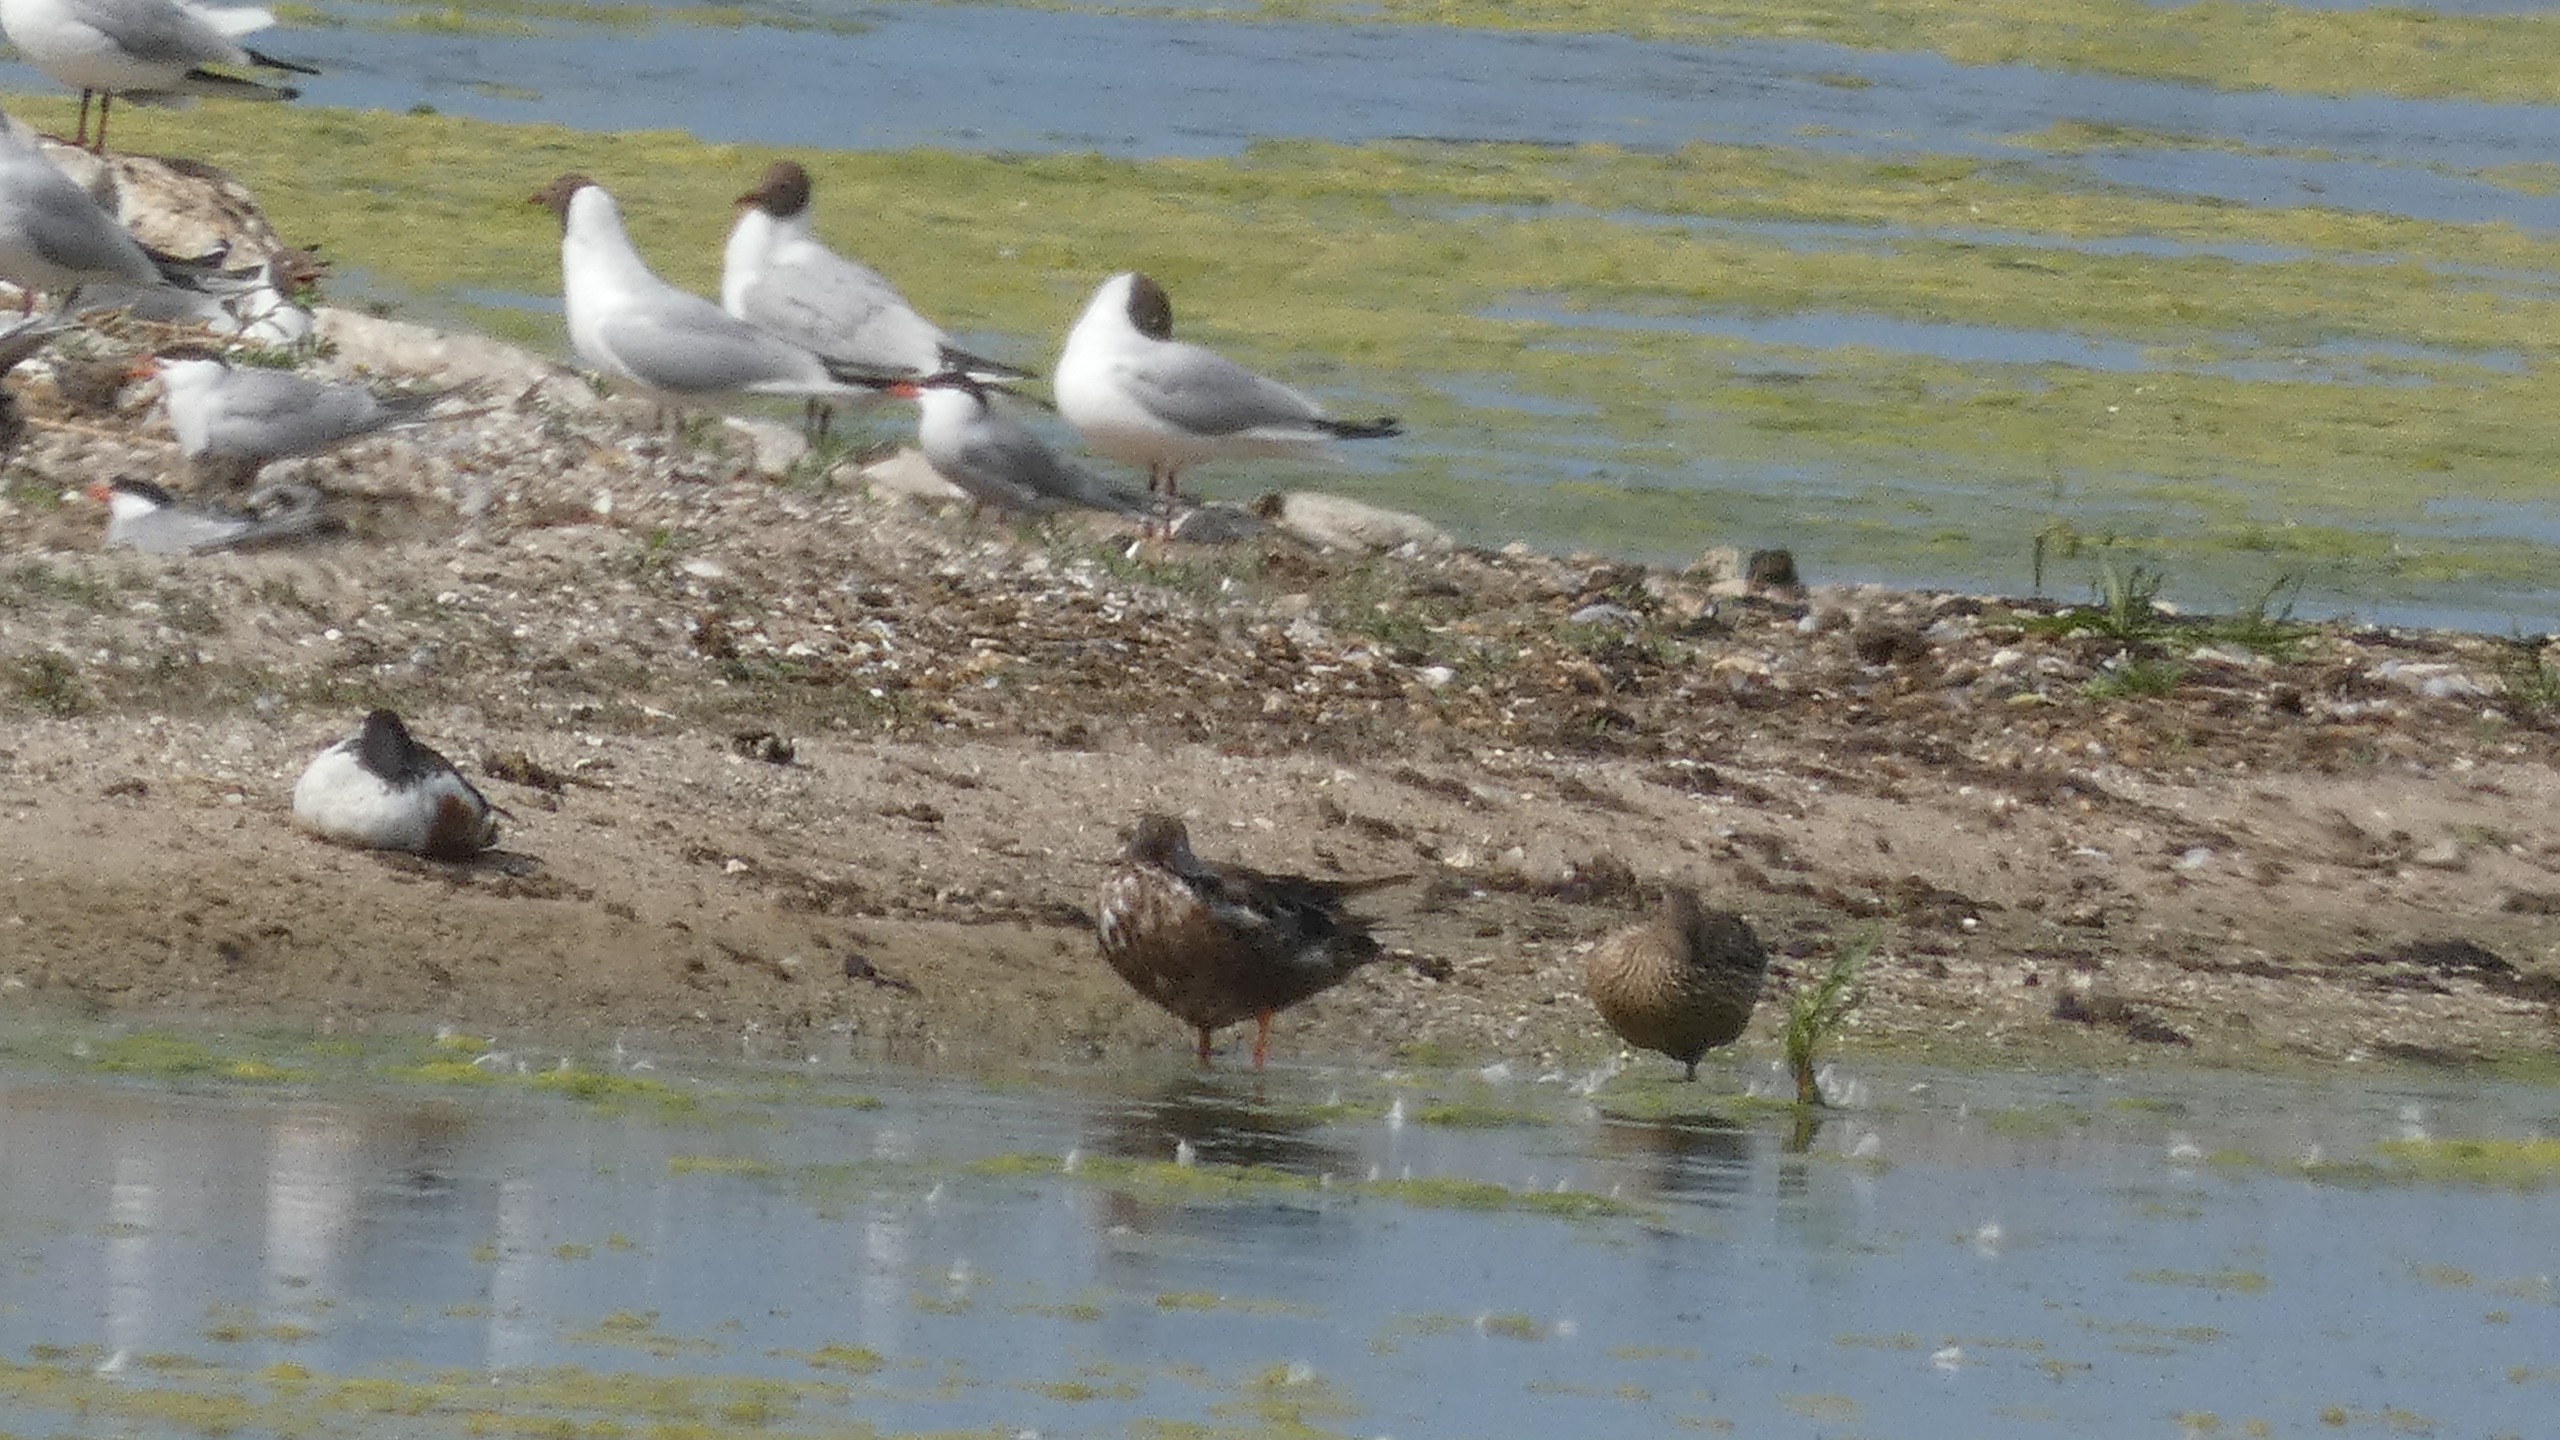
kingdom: Animalia
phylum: Chordata
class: Aves
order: Anseriformes
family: Anatidae
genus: Spatula
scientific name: Spatula clypeata
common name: Skeand
